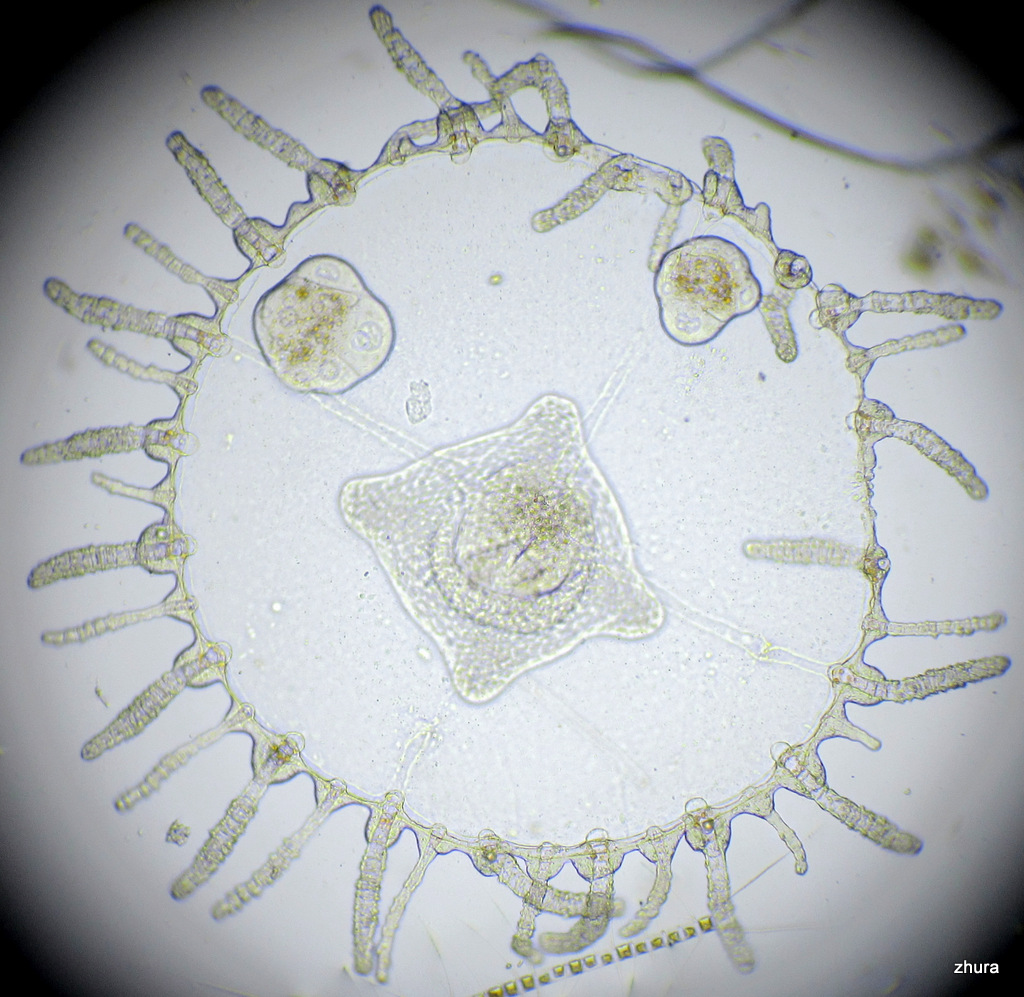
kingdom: Animalia
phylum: Cnidaria
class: Hydrozoa
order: Leptothecata
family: Campanulariidae
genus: Obelia
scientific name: Obelia longissima
